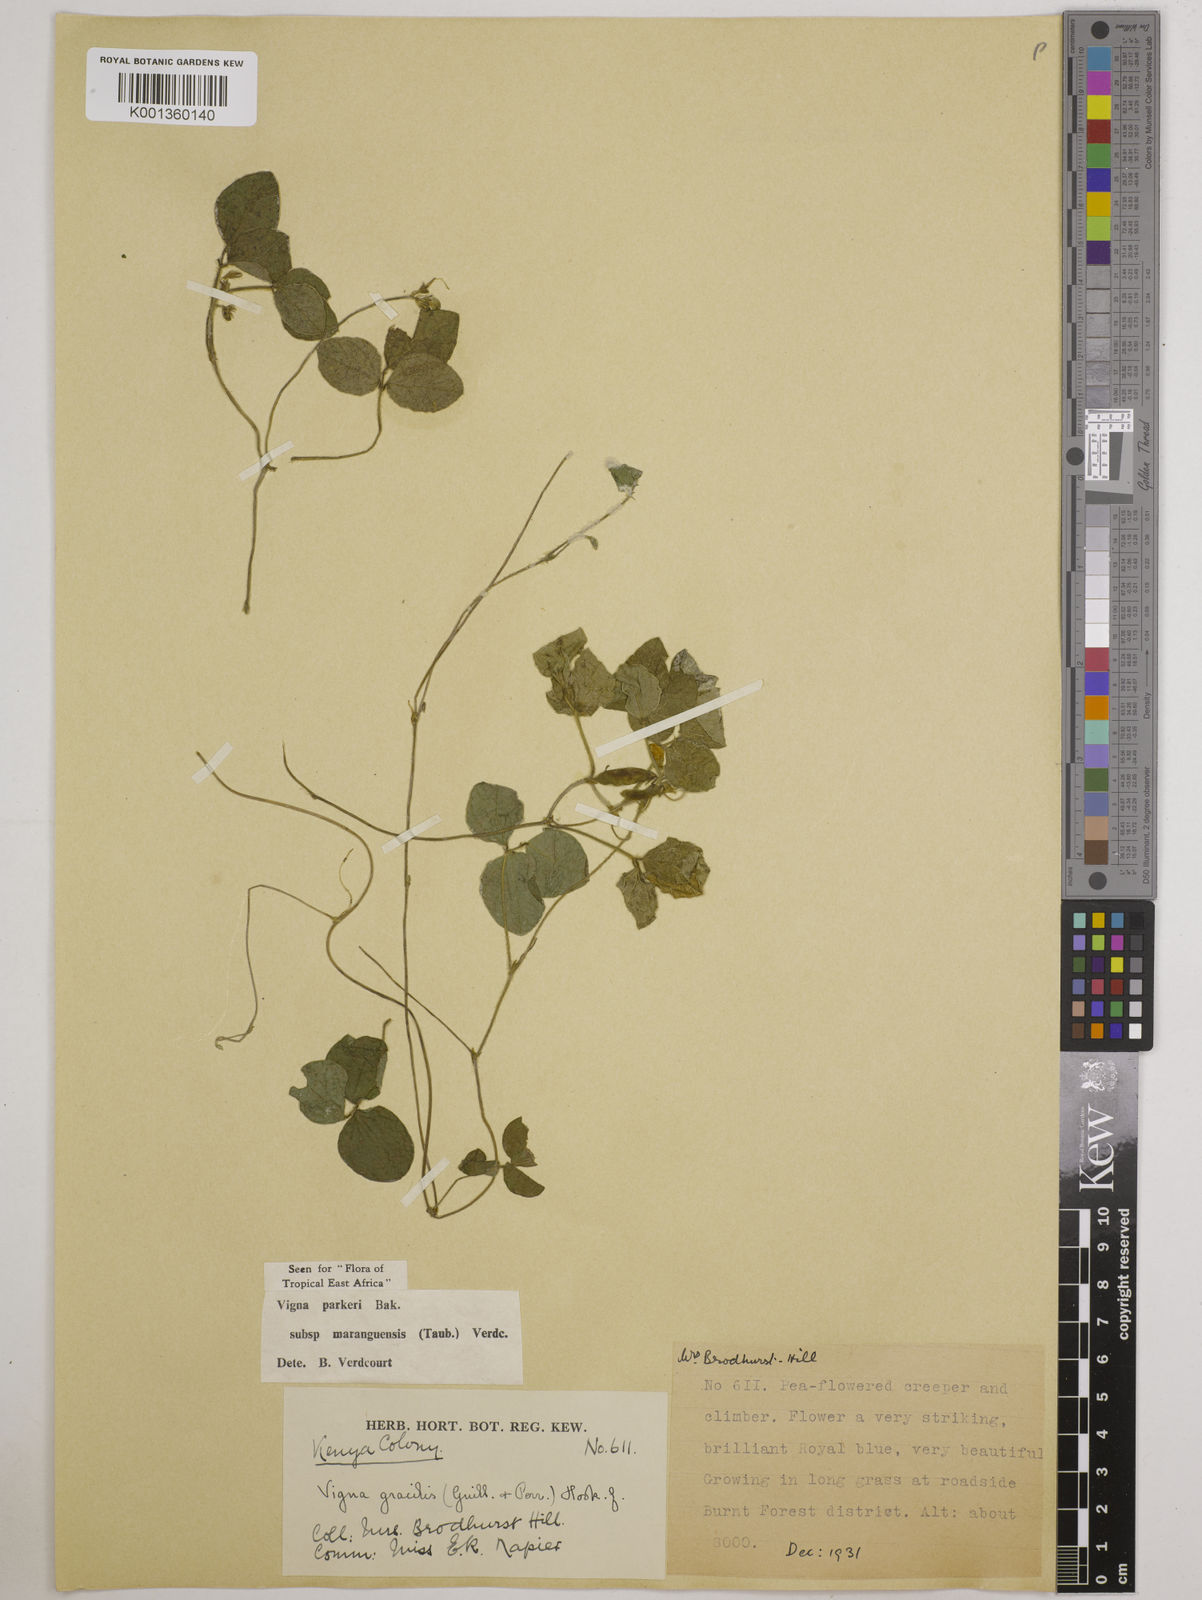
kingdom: Plantae
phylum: Tracheophyta
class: Magnoliopsida
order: Fabales
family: Fabaceae
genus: Vigna
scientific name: Vigna
